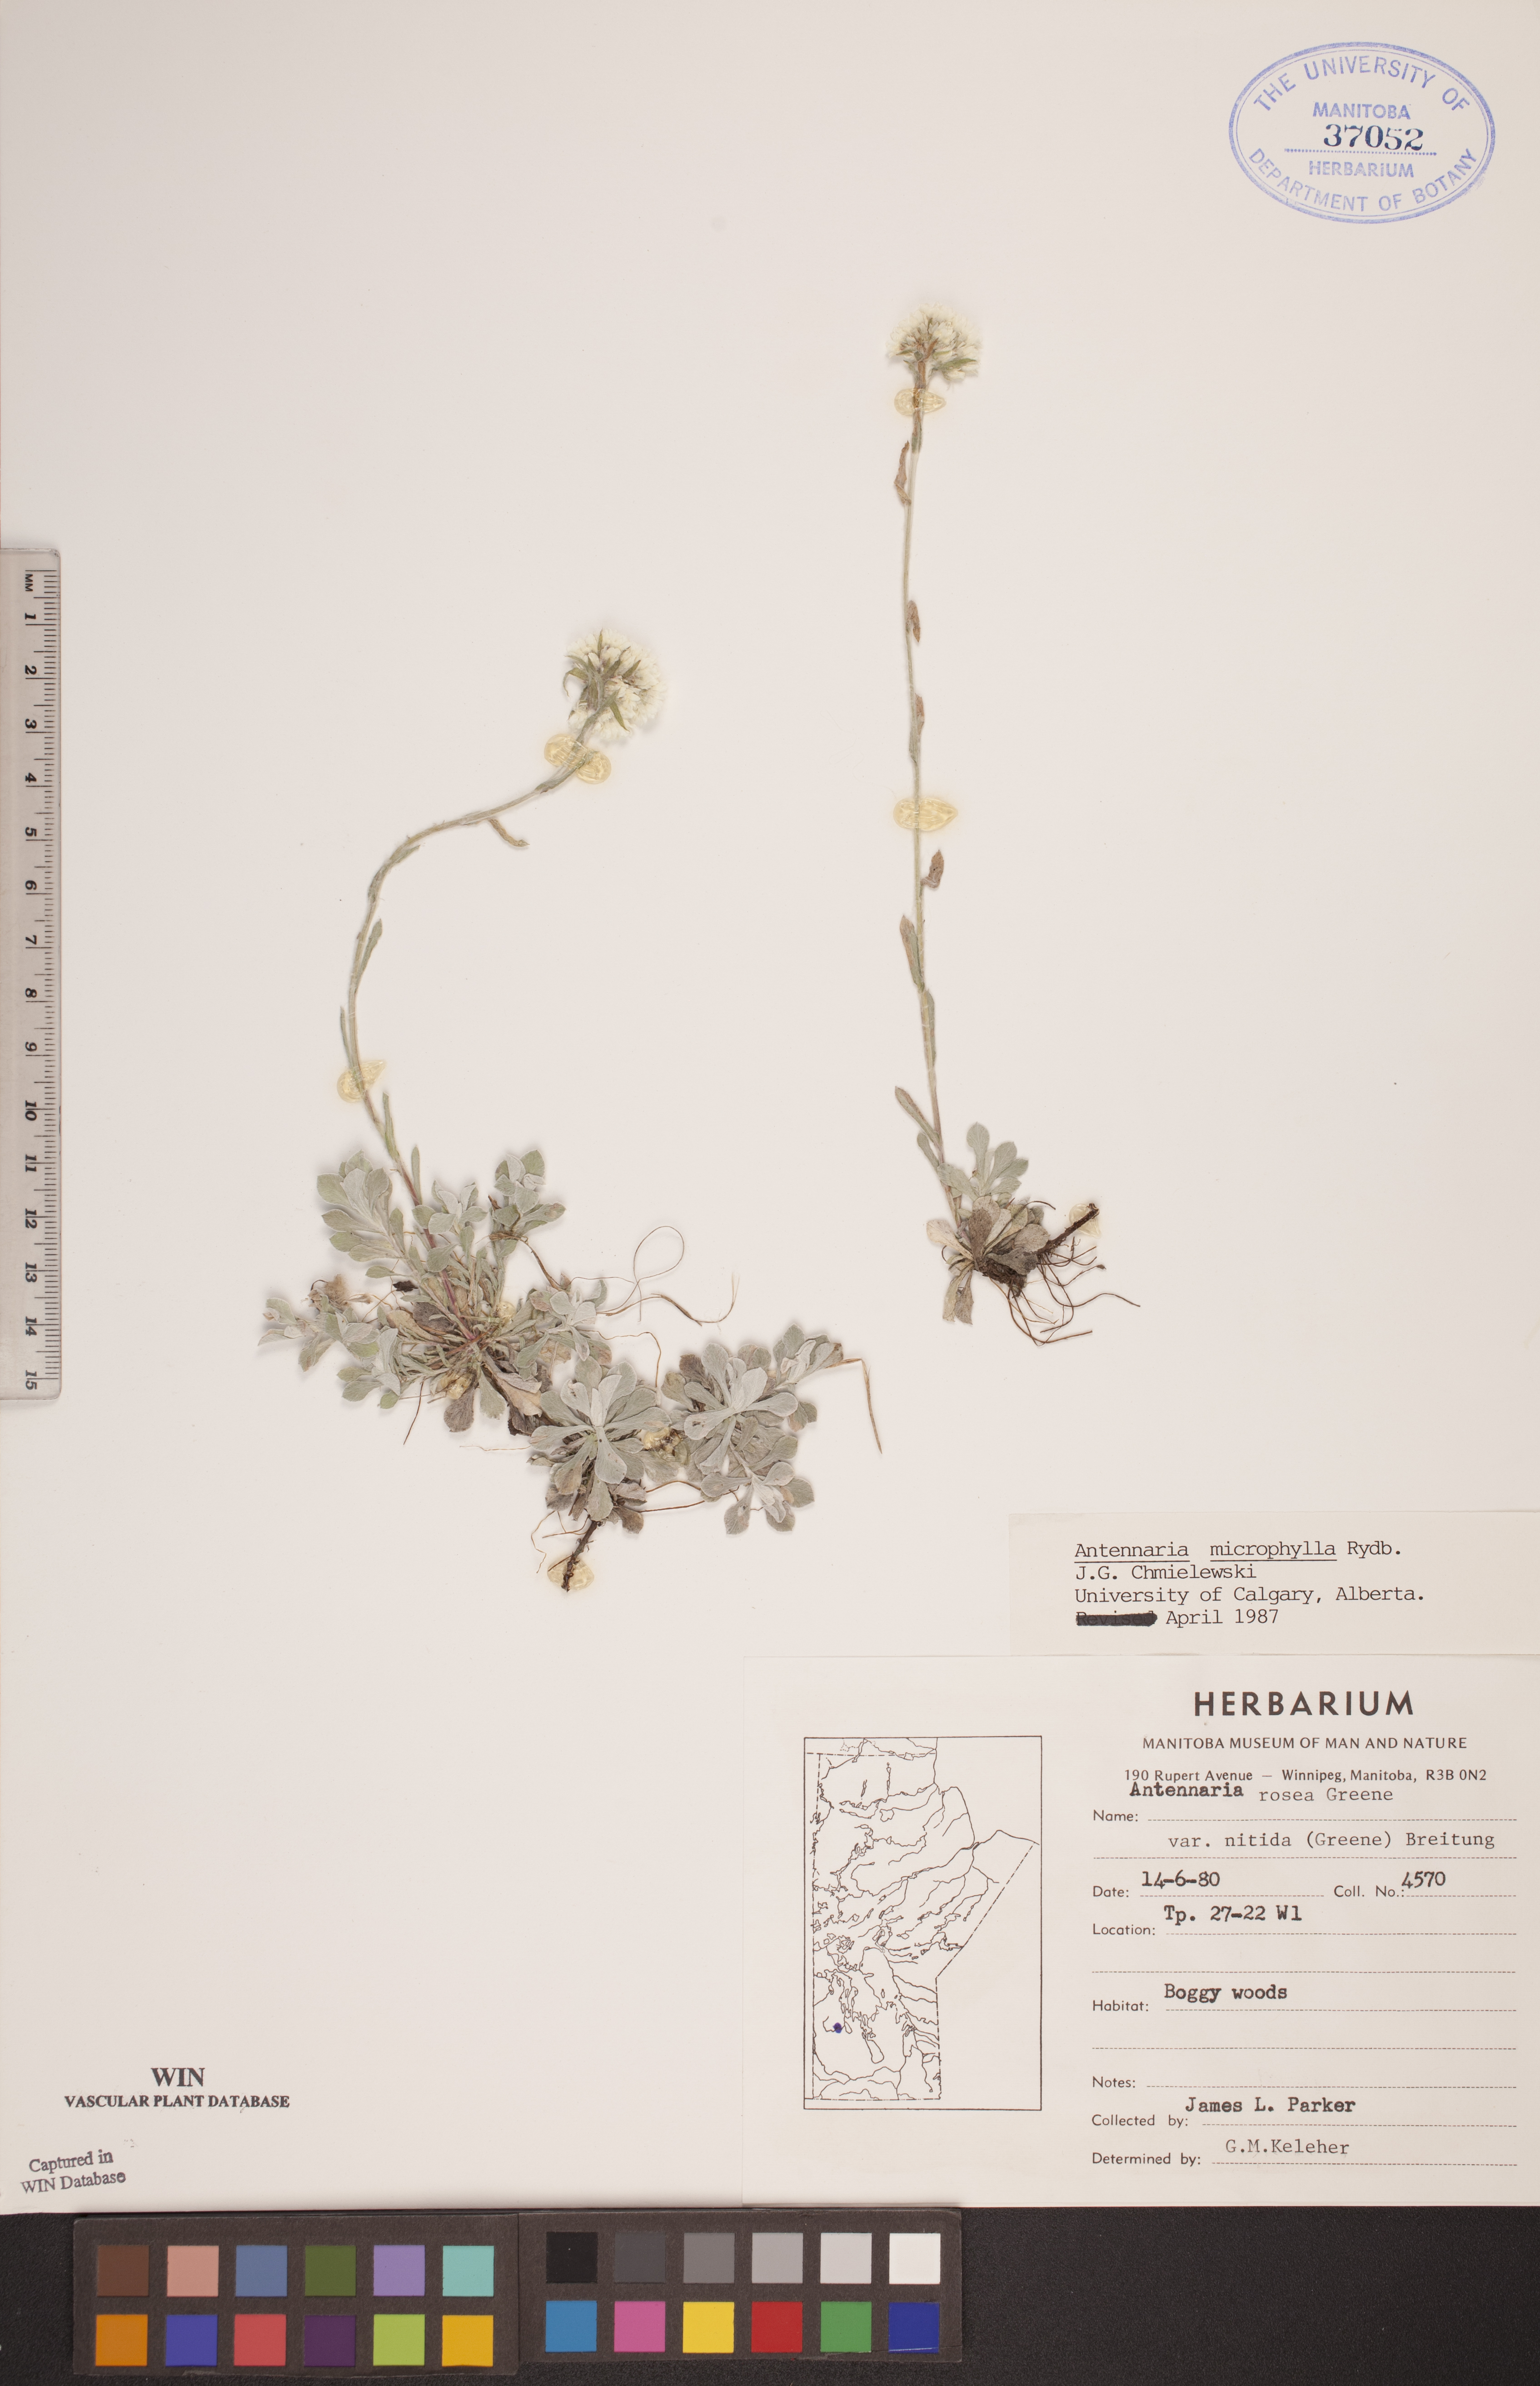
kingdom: Plantae
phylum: Tracheophyta
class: Magnoliopsida
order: Asterales
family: Asteraceae
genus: Antennaria
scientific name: Antennaria microphylla
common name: Littleleaf pussytoes
